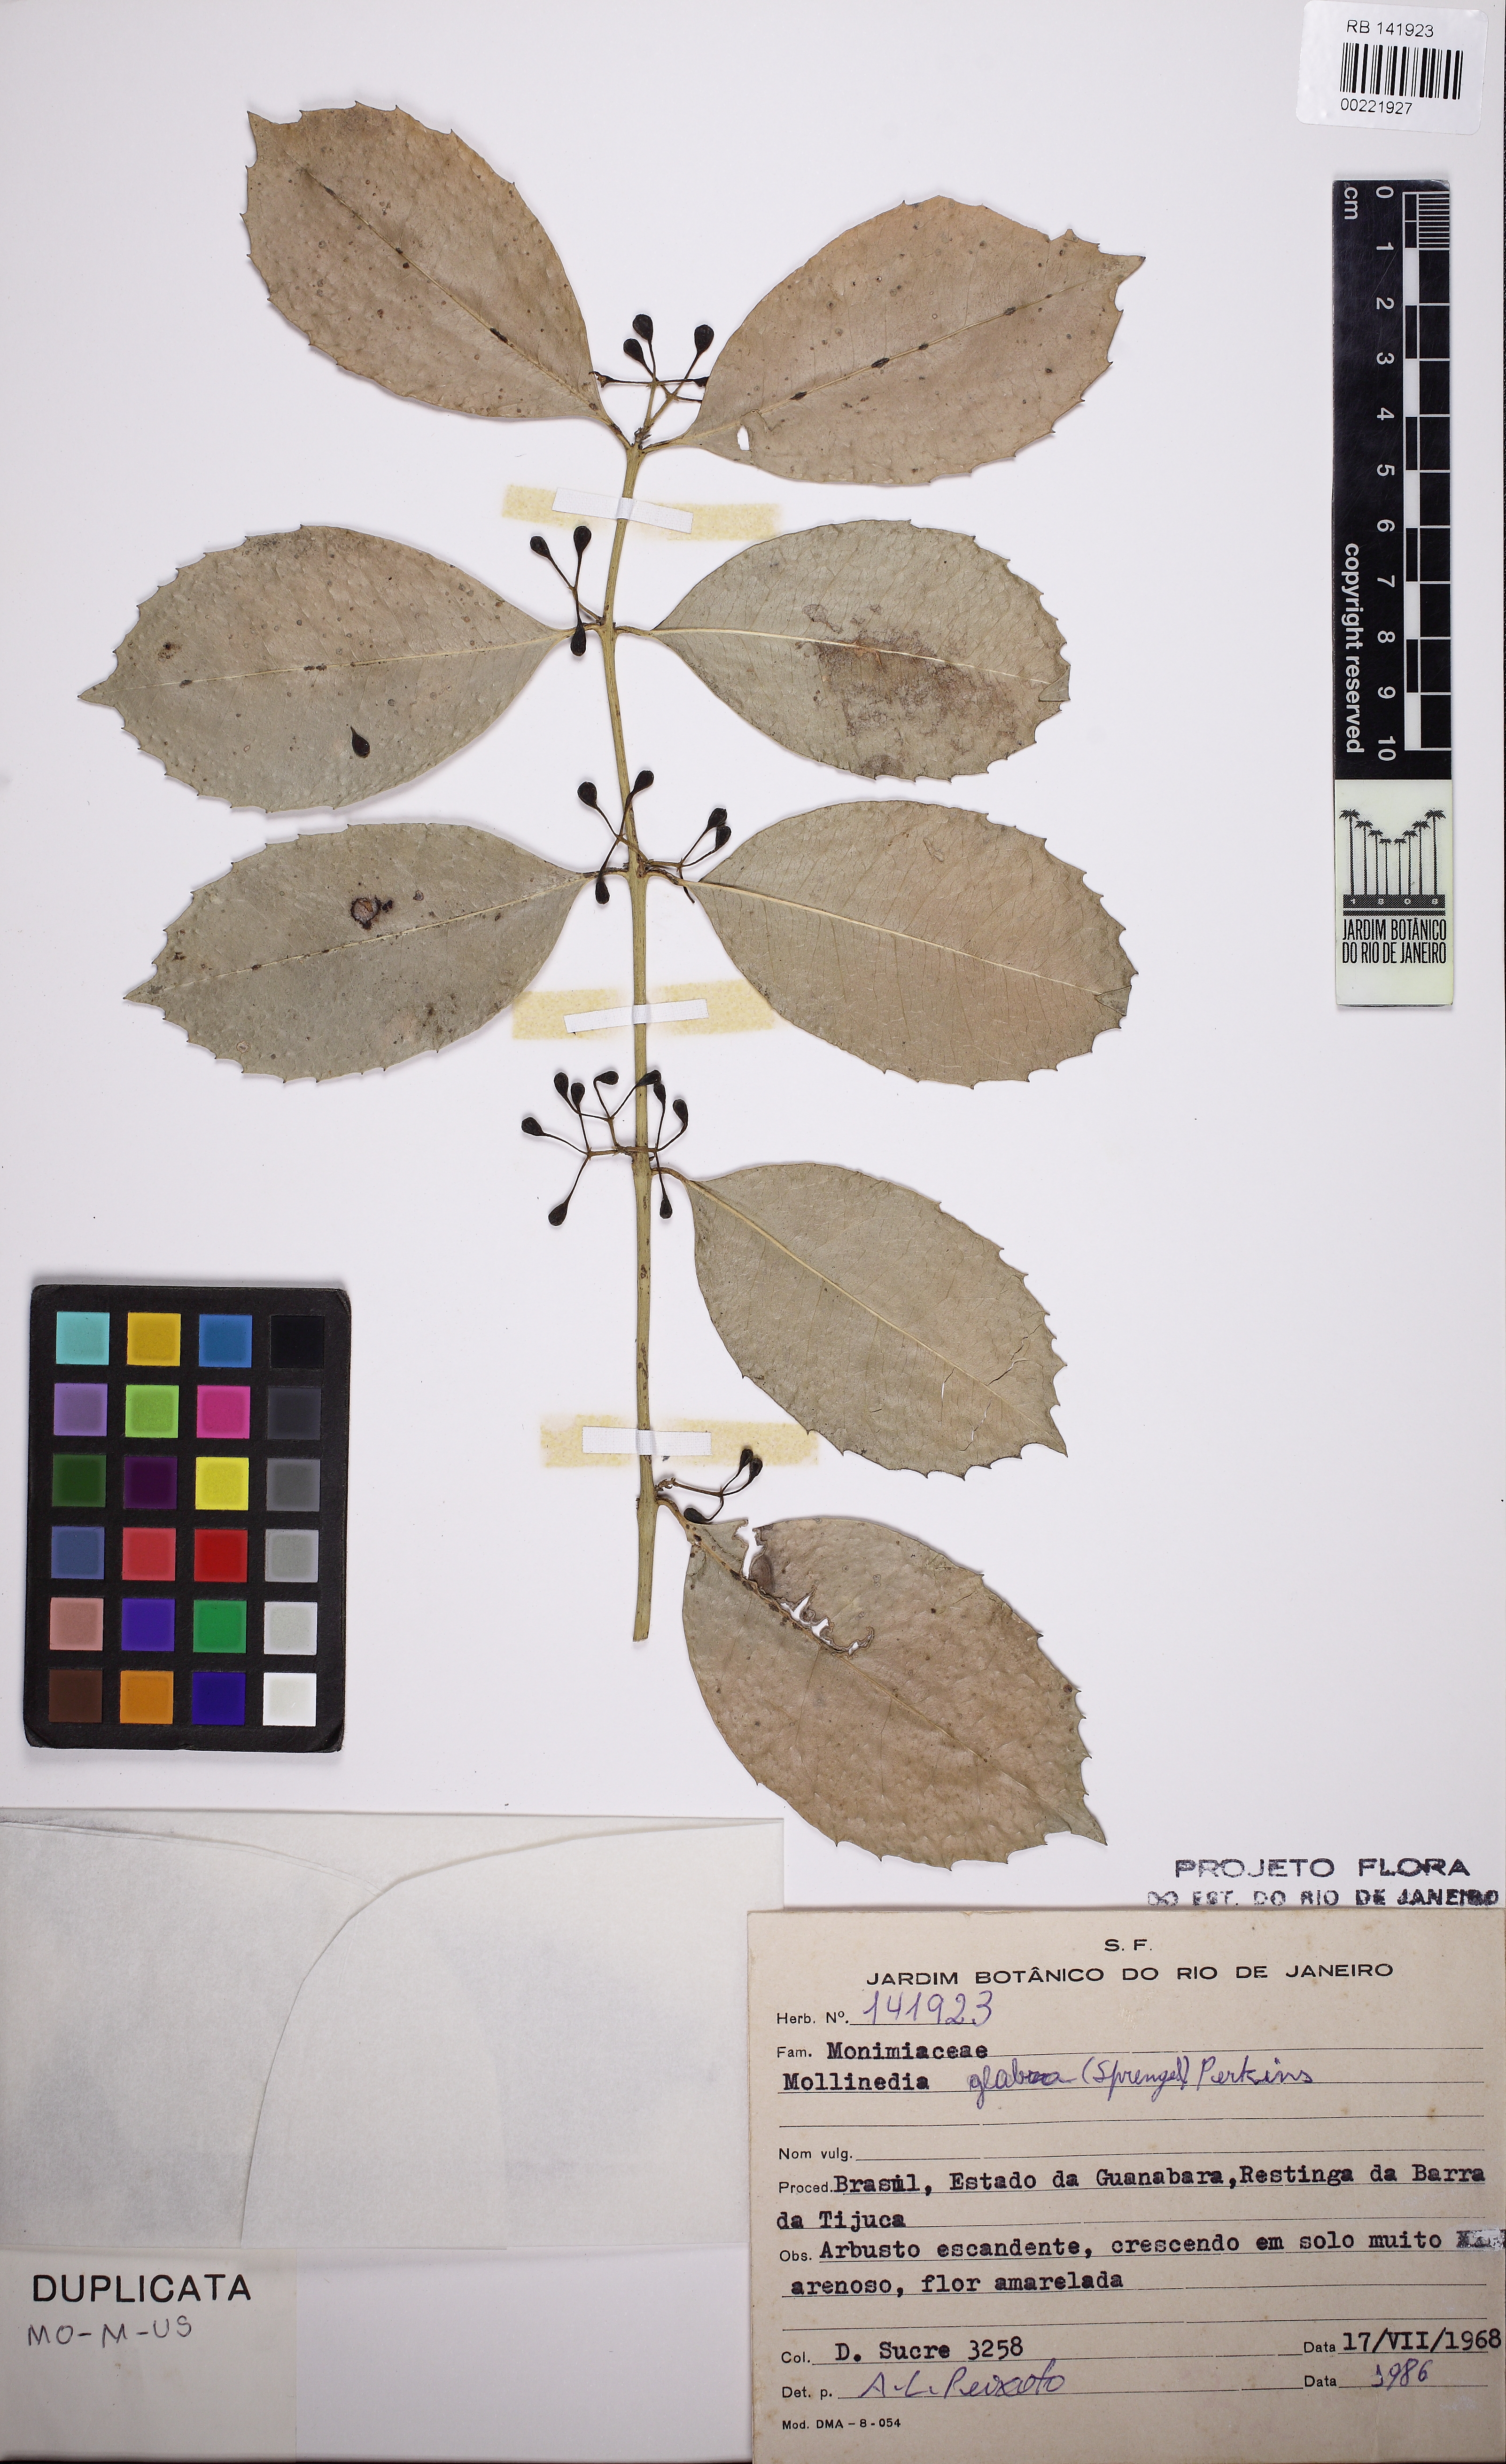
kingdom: Plantae
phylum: Tracheophyta
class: Magnoliopsida
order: Laurales
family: Monimiaceae
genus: Mollinedia
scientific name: Mollinedia glabra
